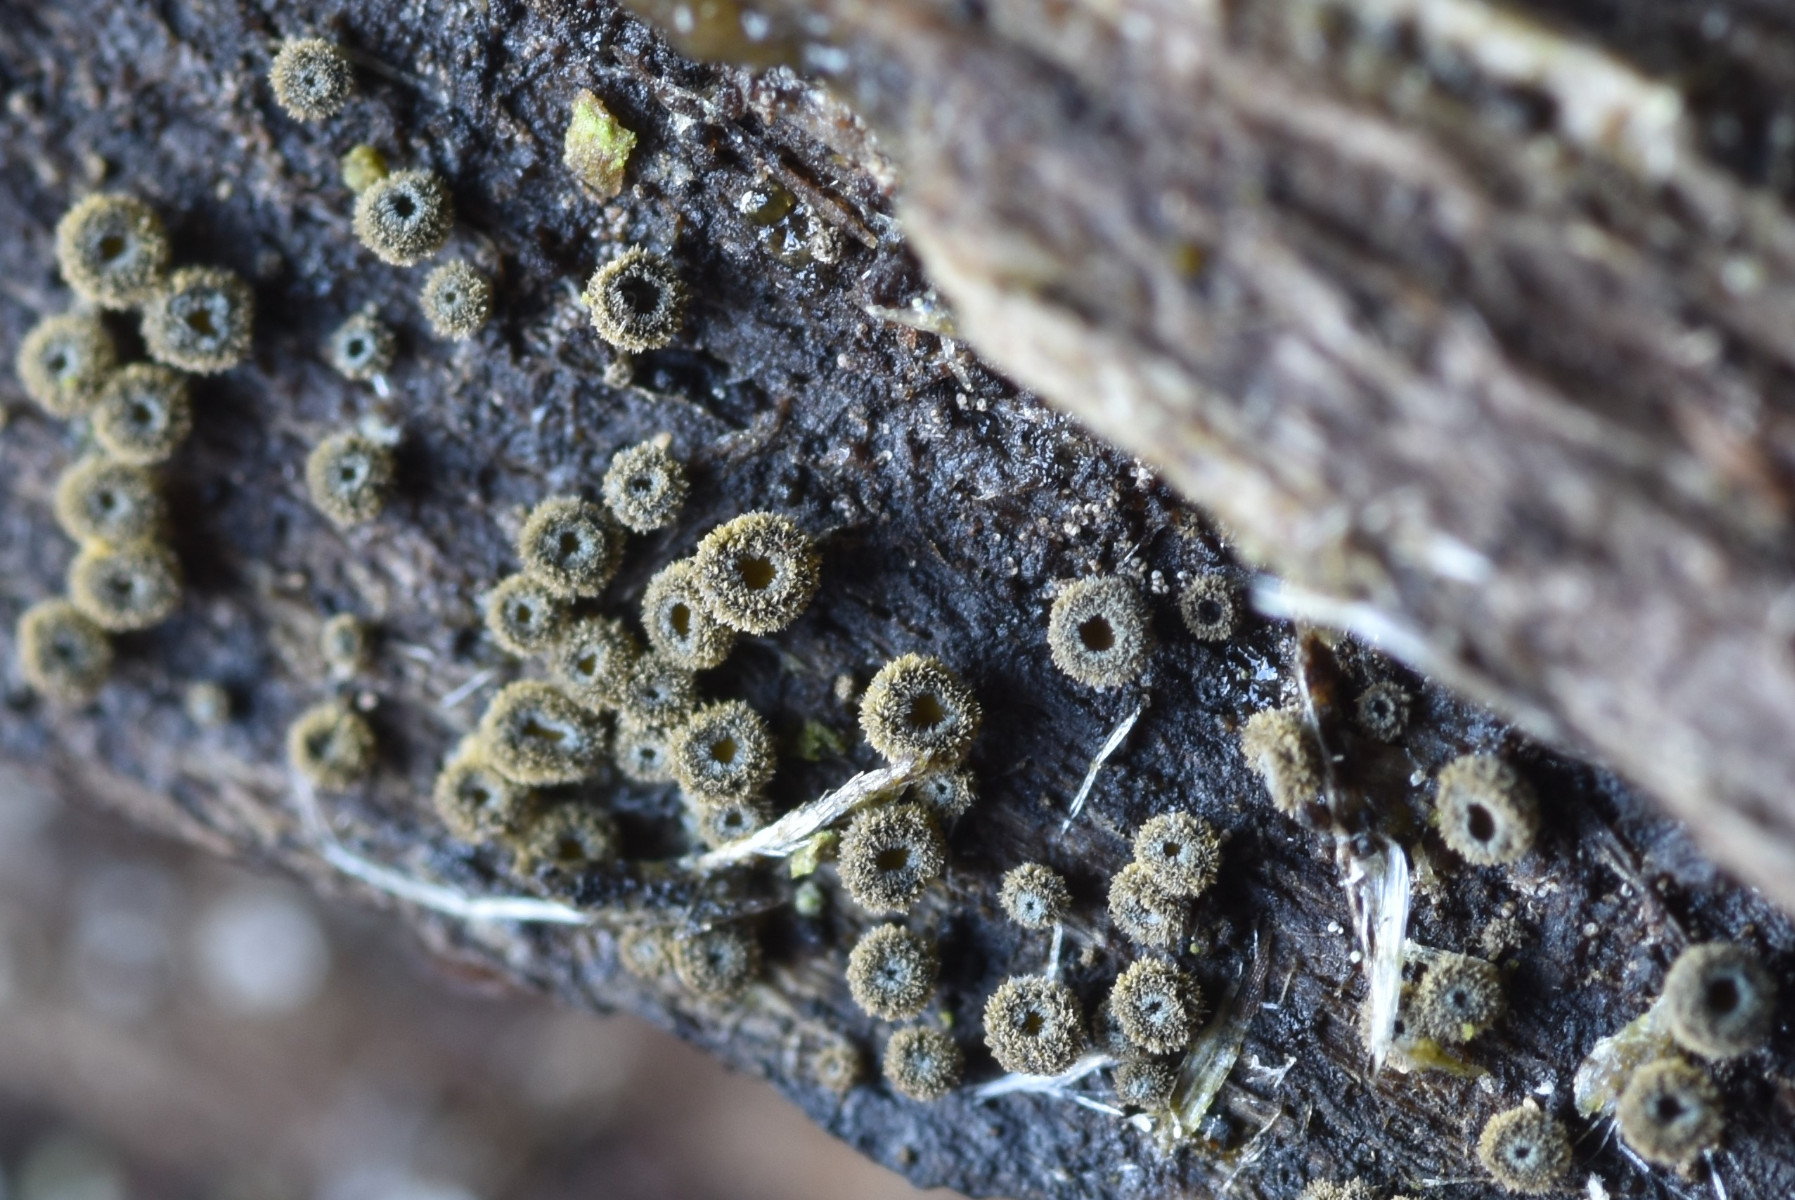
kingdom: Fungi
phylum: Ascomycota
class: Leotiomycetes
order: Helotiales
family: Lachnaceae
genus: Neodasyscypha
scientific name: Neodasyscypha cerina
